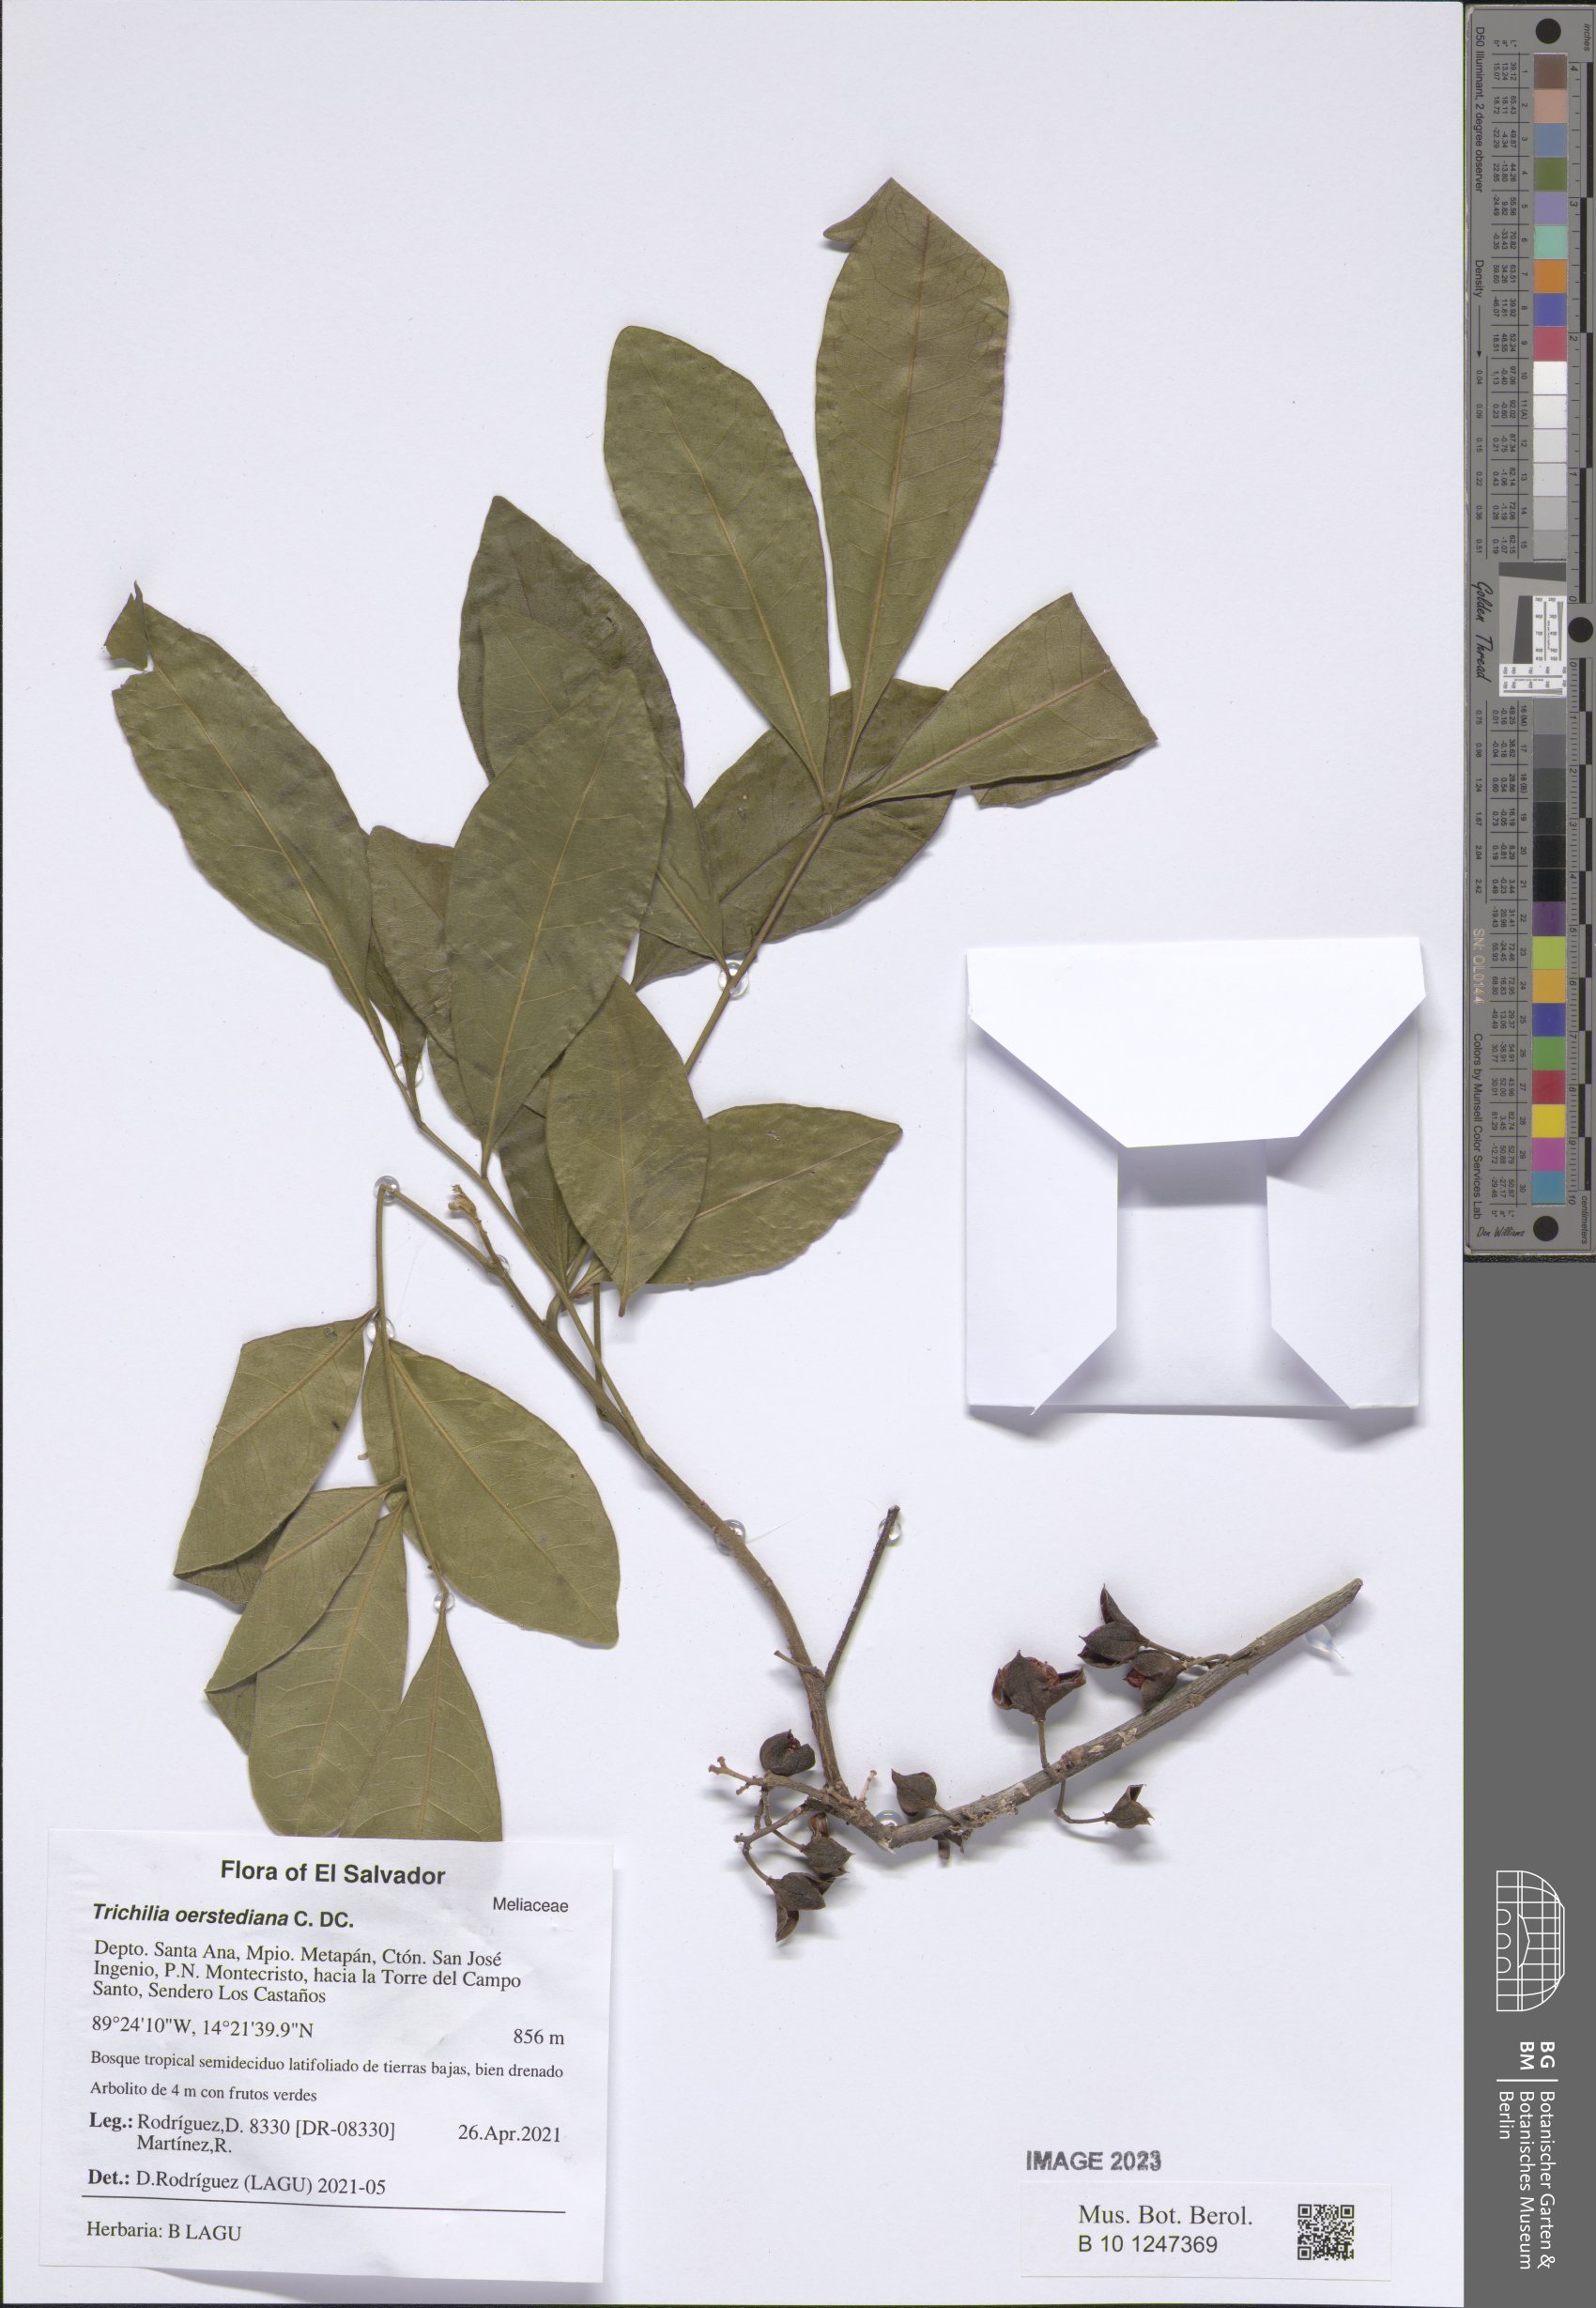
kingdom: Plantae
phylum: Tracheophyta
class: Magnoliopsida
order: Sapindales
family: Meliaceae
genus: Trichilia
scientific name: Trichilia havanensis
